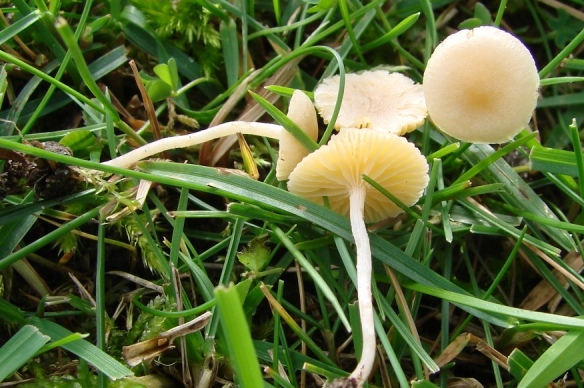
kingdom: Fungi
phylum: Basidiomycota
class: Agaricomycetes
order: Agaricales
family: Tubariaceae
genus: Tubaria
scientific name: Tubaria dispersa
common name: tjørne-fnughat
